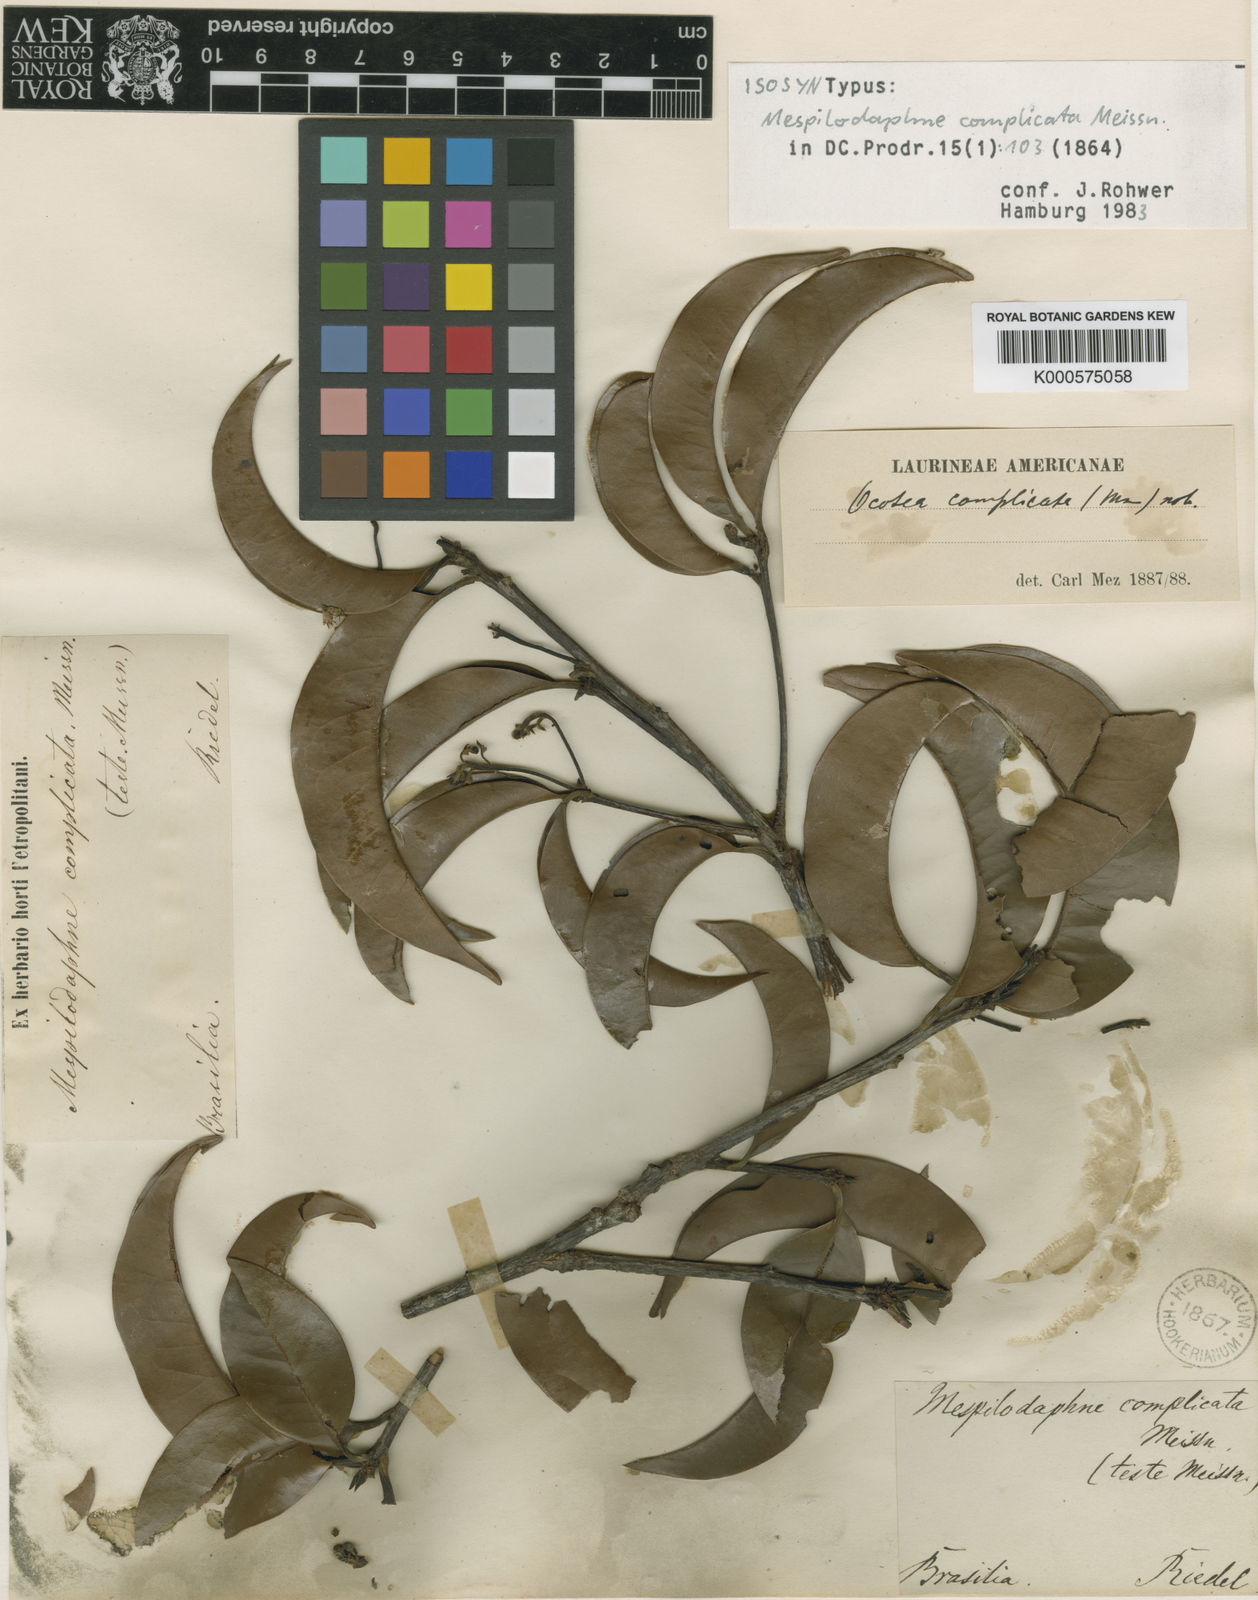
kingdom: Plantae
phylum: Tracheophyta
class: Magnoliopsida
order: Laurales
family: Lauraceae
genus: Mespilodaphne
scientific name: Mespilodaphne fasciculata
